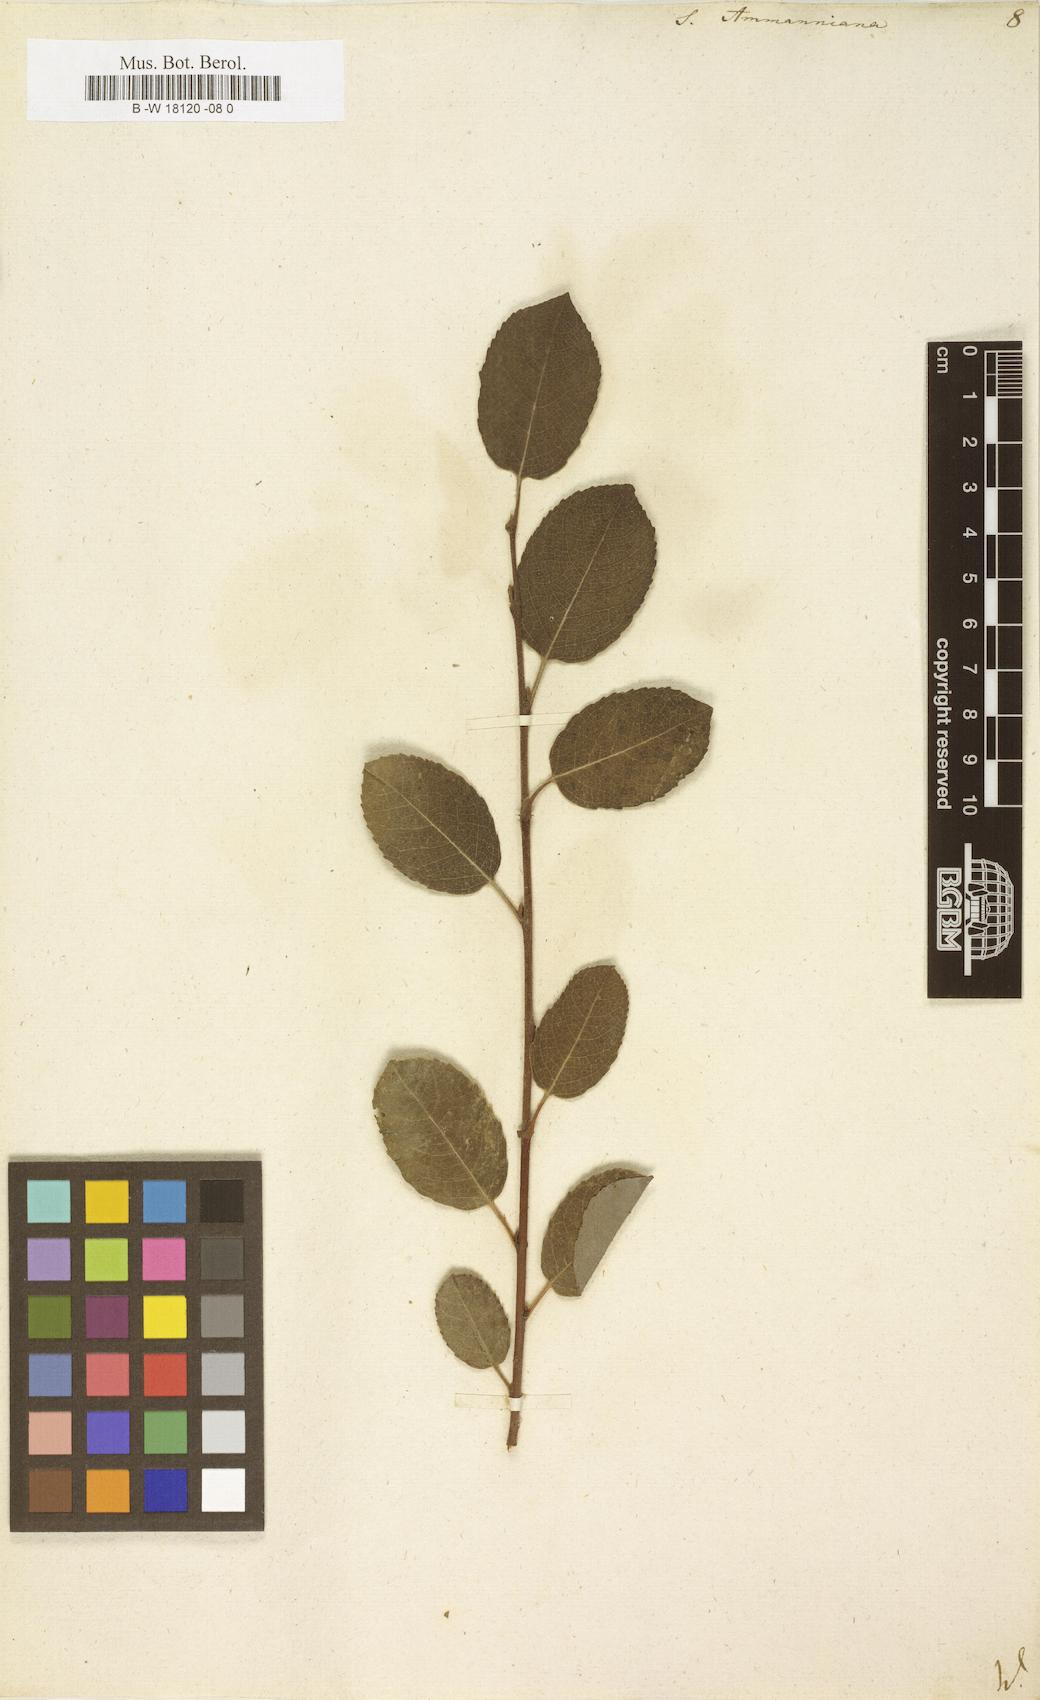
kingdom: Plantae
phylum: Tracheophyta
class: Magnoliopsida
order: Malpighiales
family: Salicaceae
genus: Salix
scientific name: Salix myrsinifolia
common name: Dark-leaved willow
